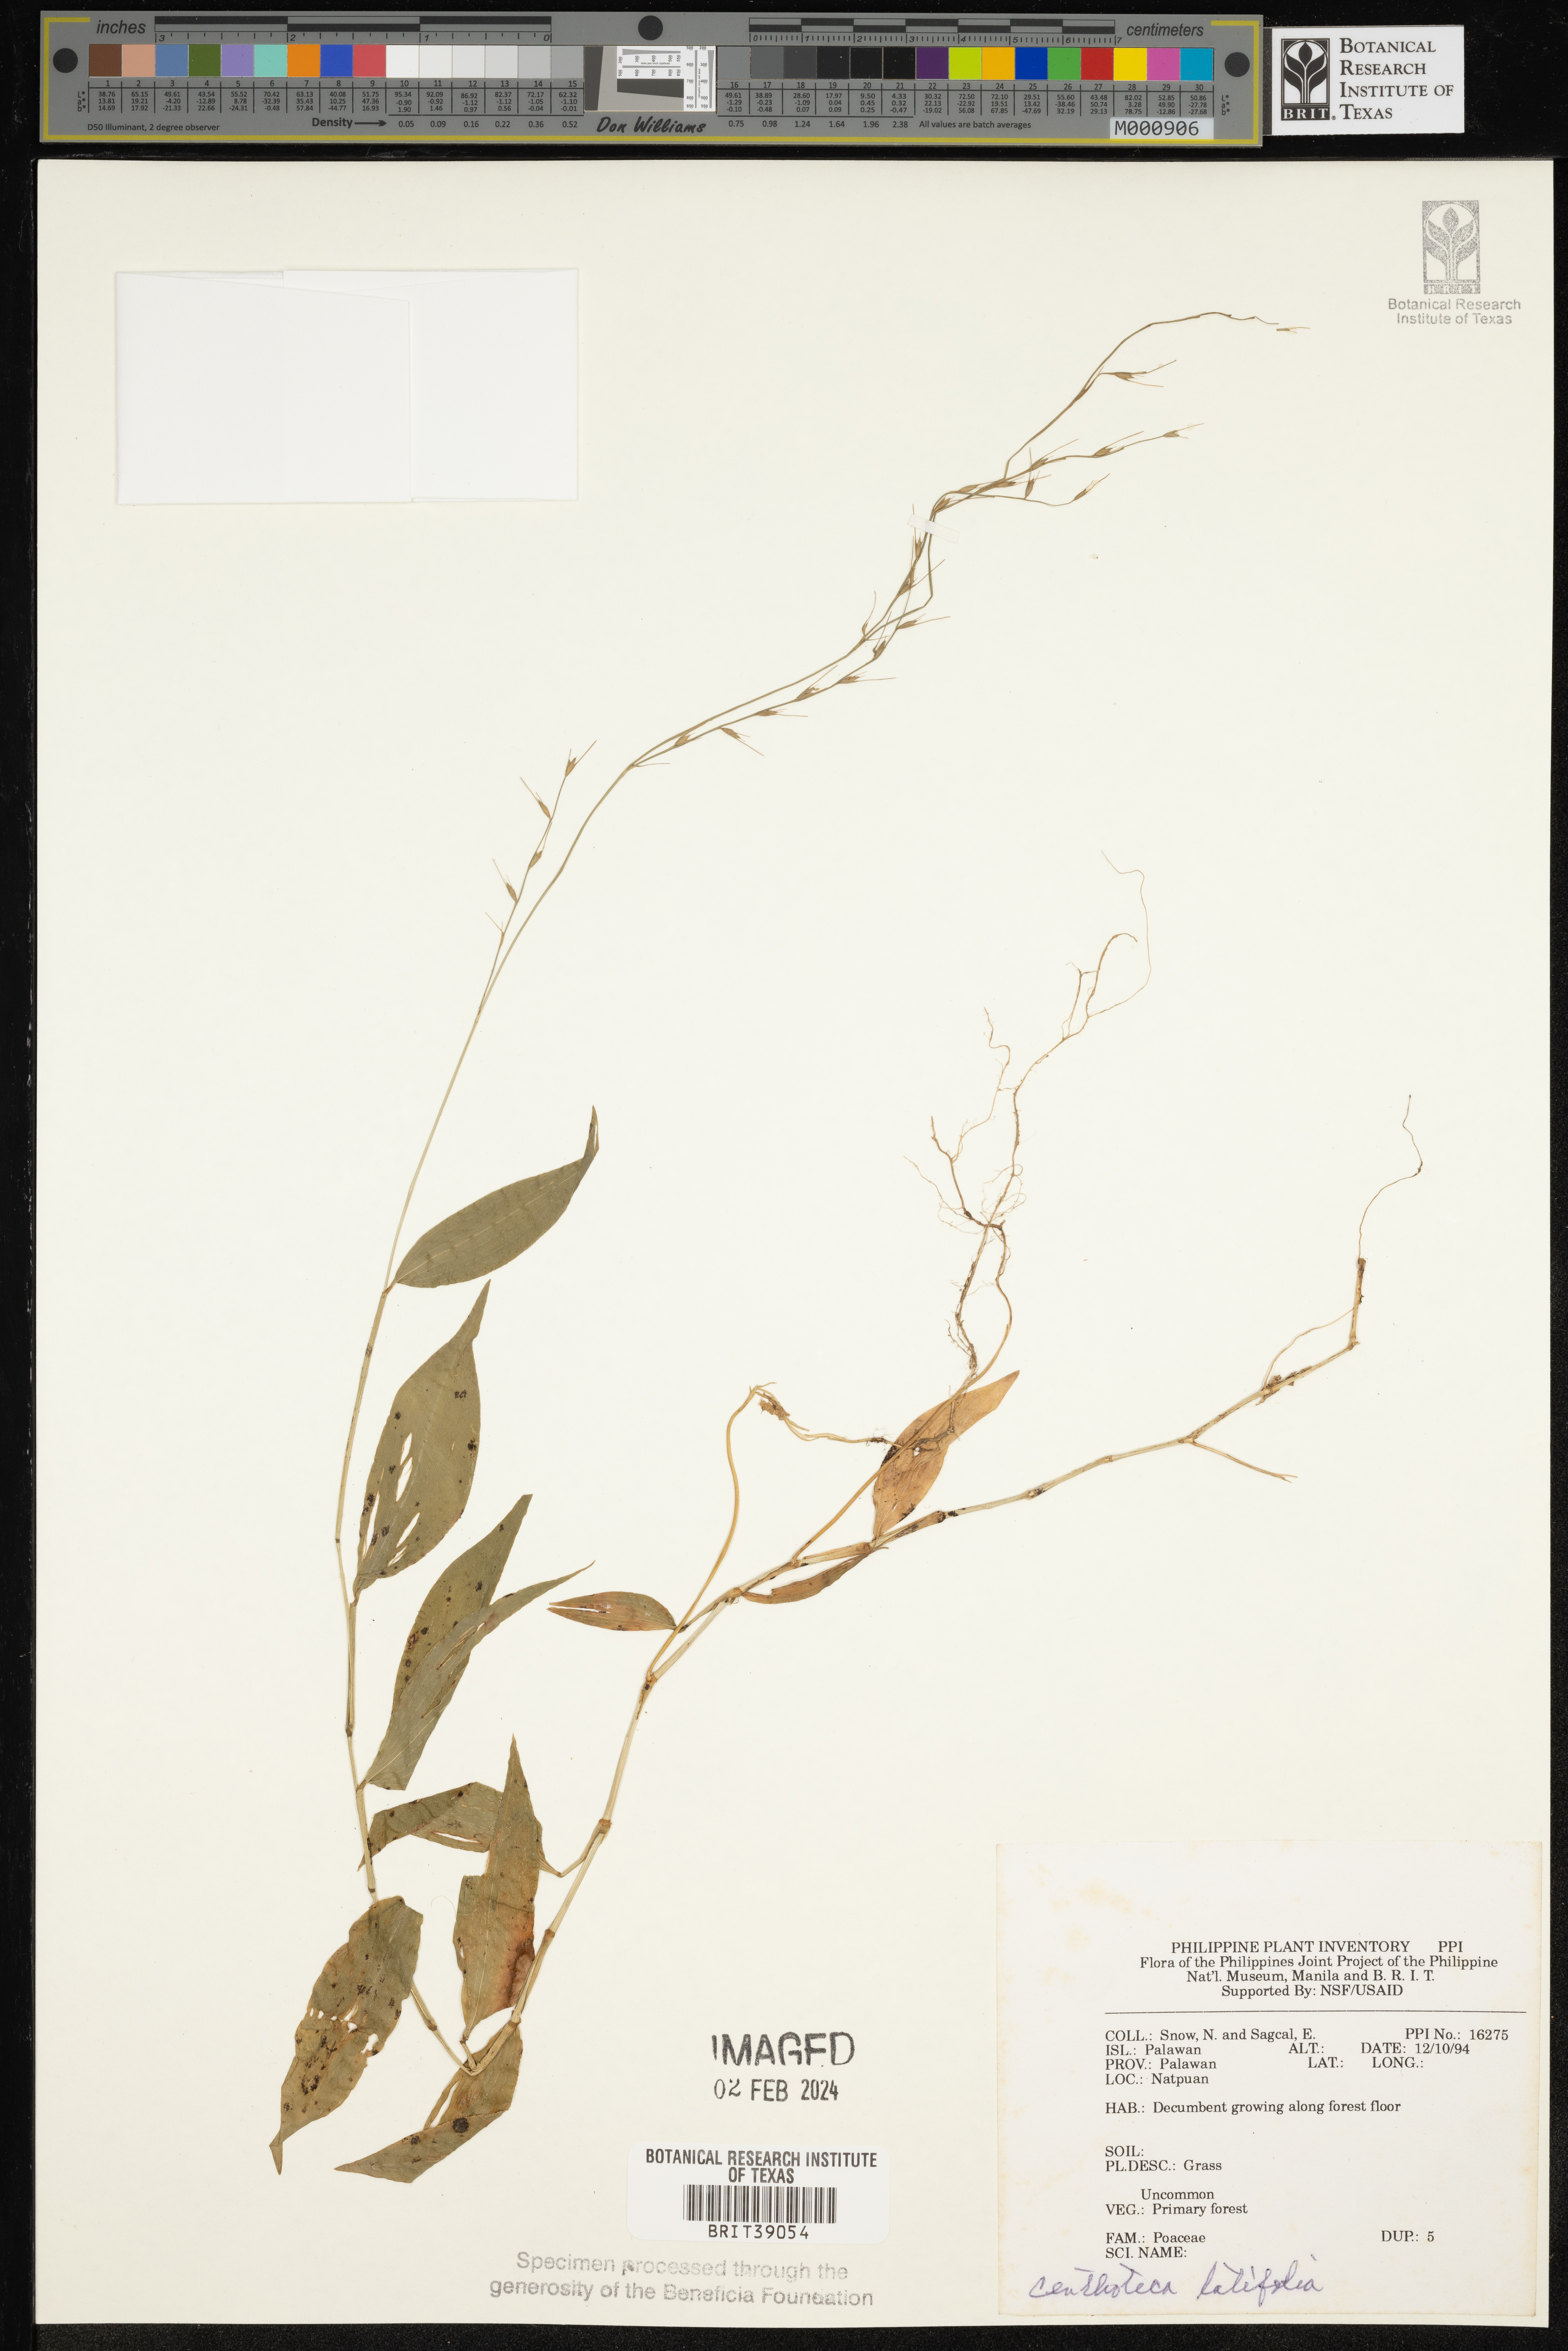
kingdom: Plantae
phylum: Tracheophyta
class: Liliopsida
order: Poales
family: Poaceae
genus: Centotheca
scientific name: Centotheca lappacea
